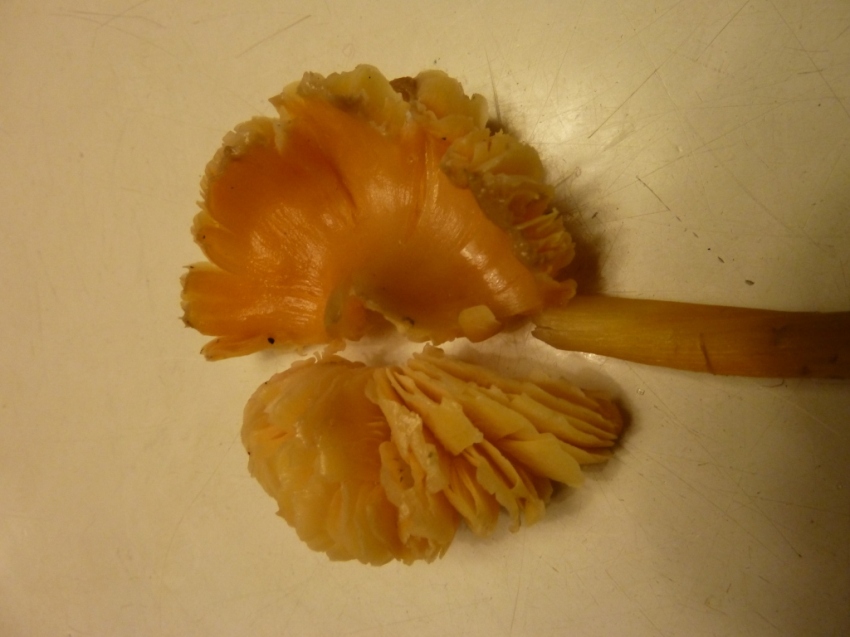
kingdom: Fungi
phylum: Basidiomycota
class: Agaricomycetes
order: Agaricales
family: Hygrophoraceae
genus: Hygrocybe
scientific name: Hygrocybe acutoconica
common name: spidspuklet vokshat
